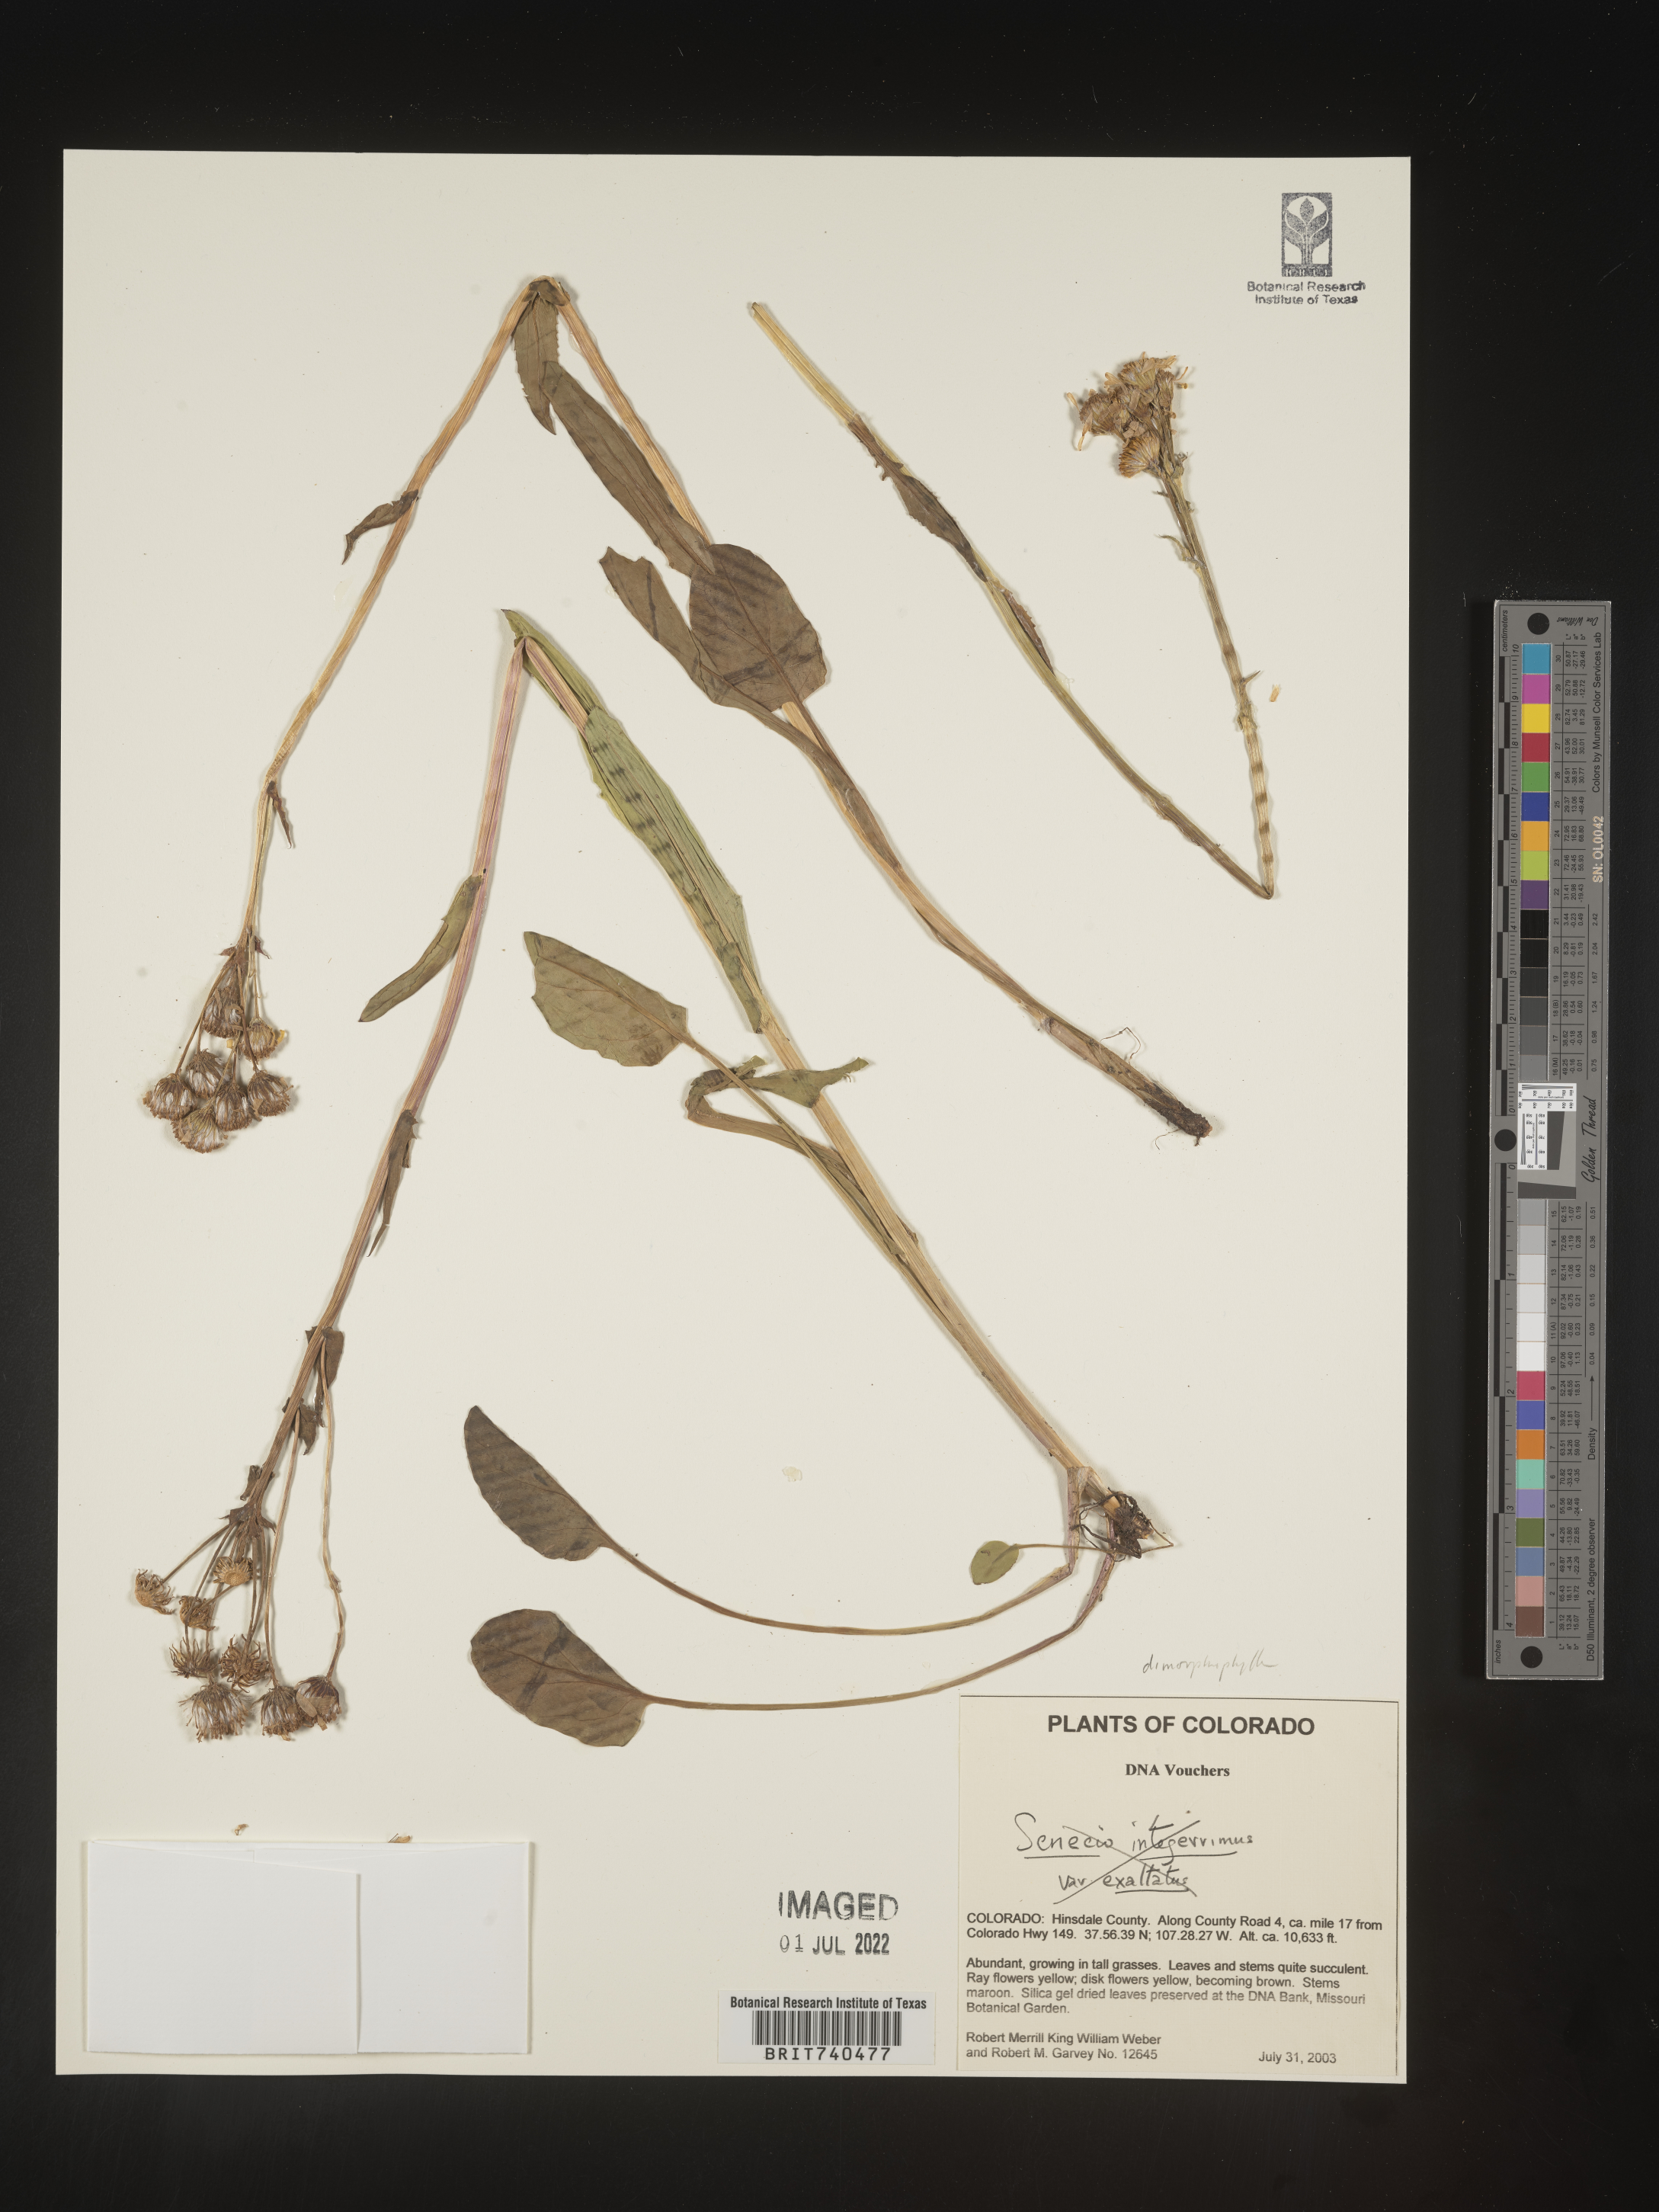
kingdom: Plantae
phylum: Tracheophyta
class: Magnoliopsida
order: Asterales
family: Asteraceae
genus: Packera
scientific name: Packera dimorphophylla
